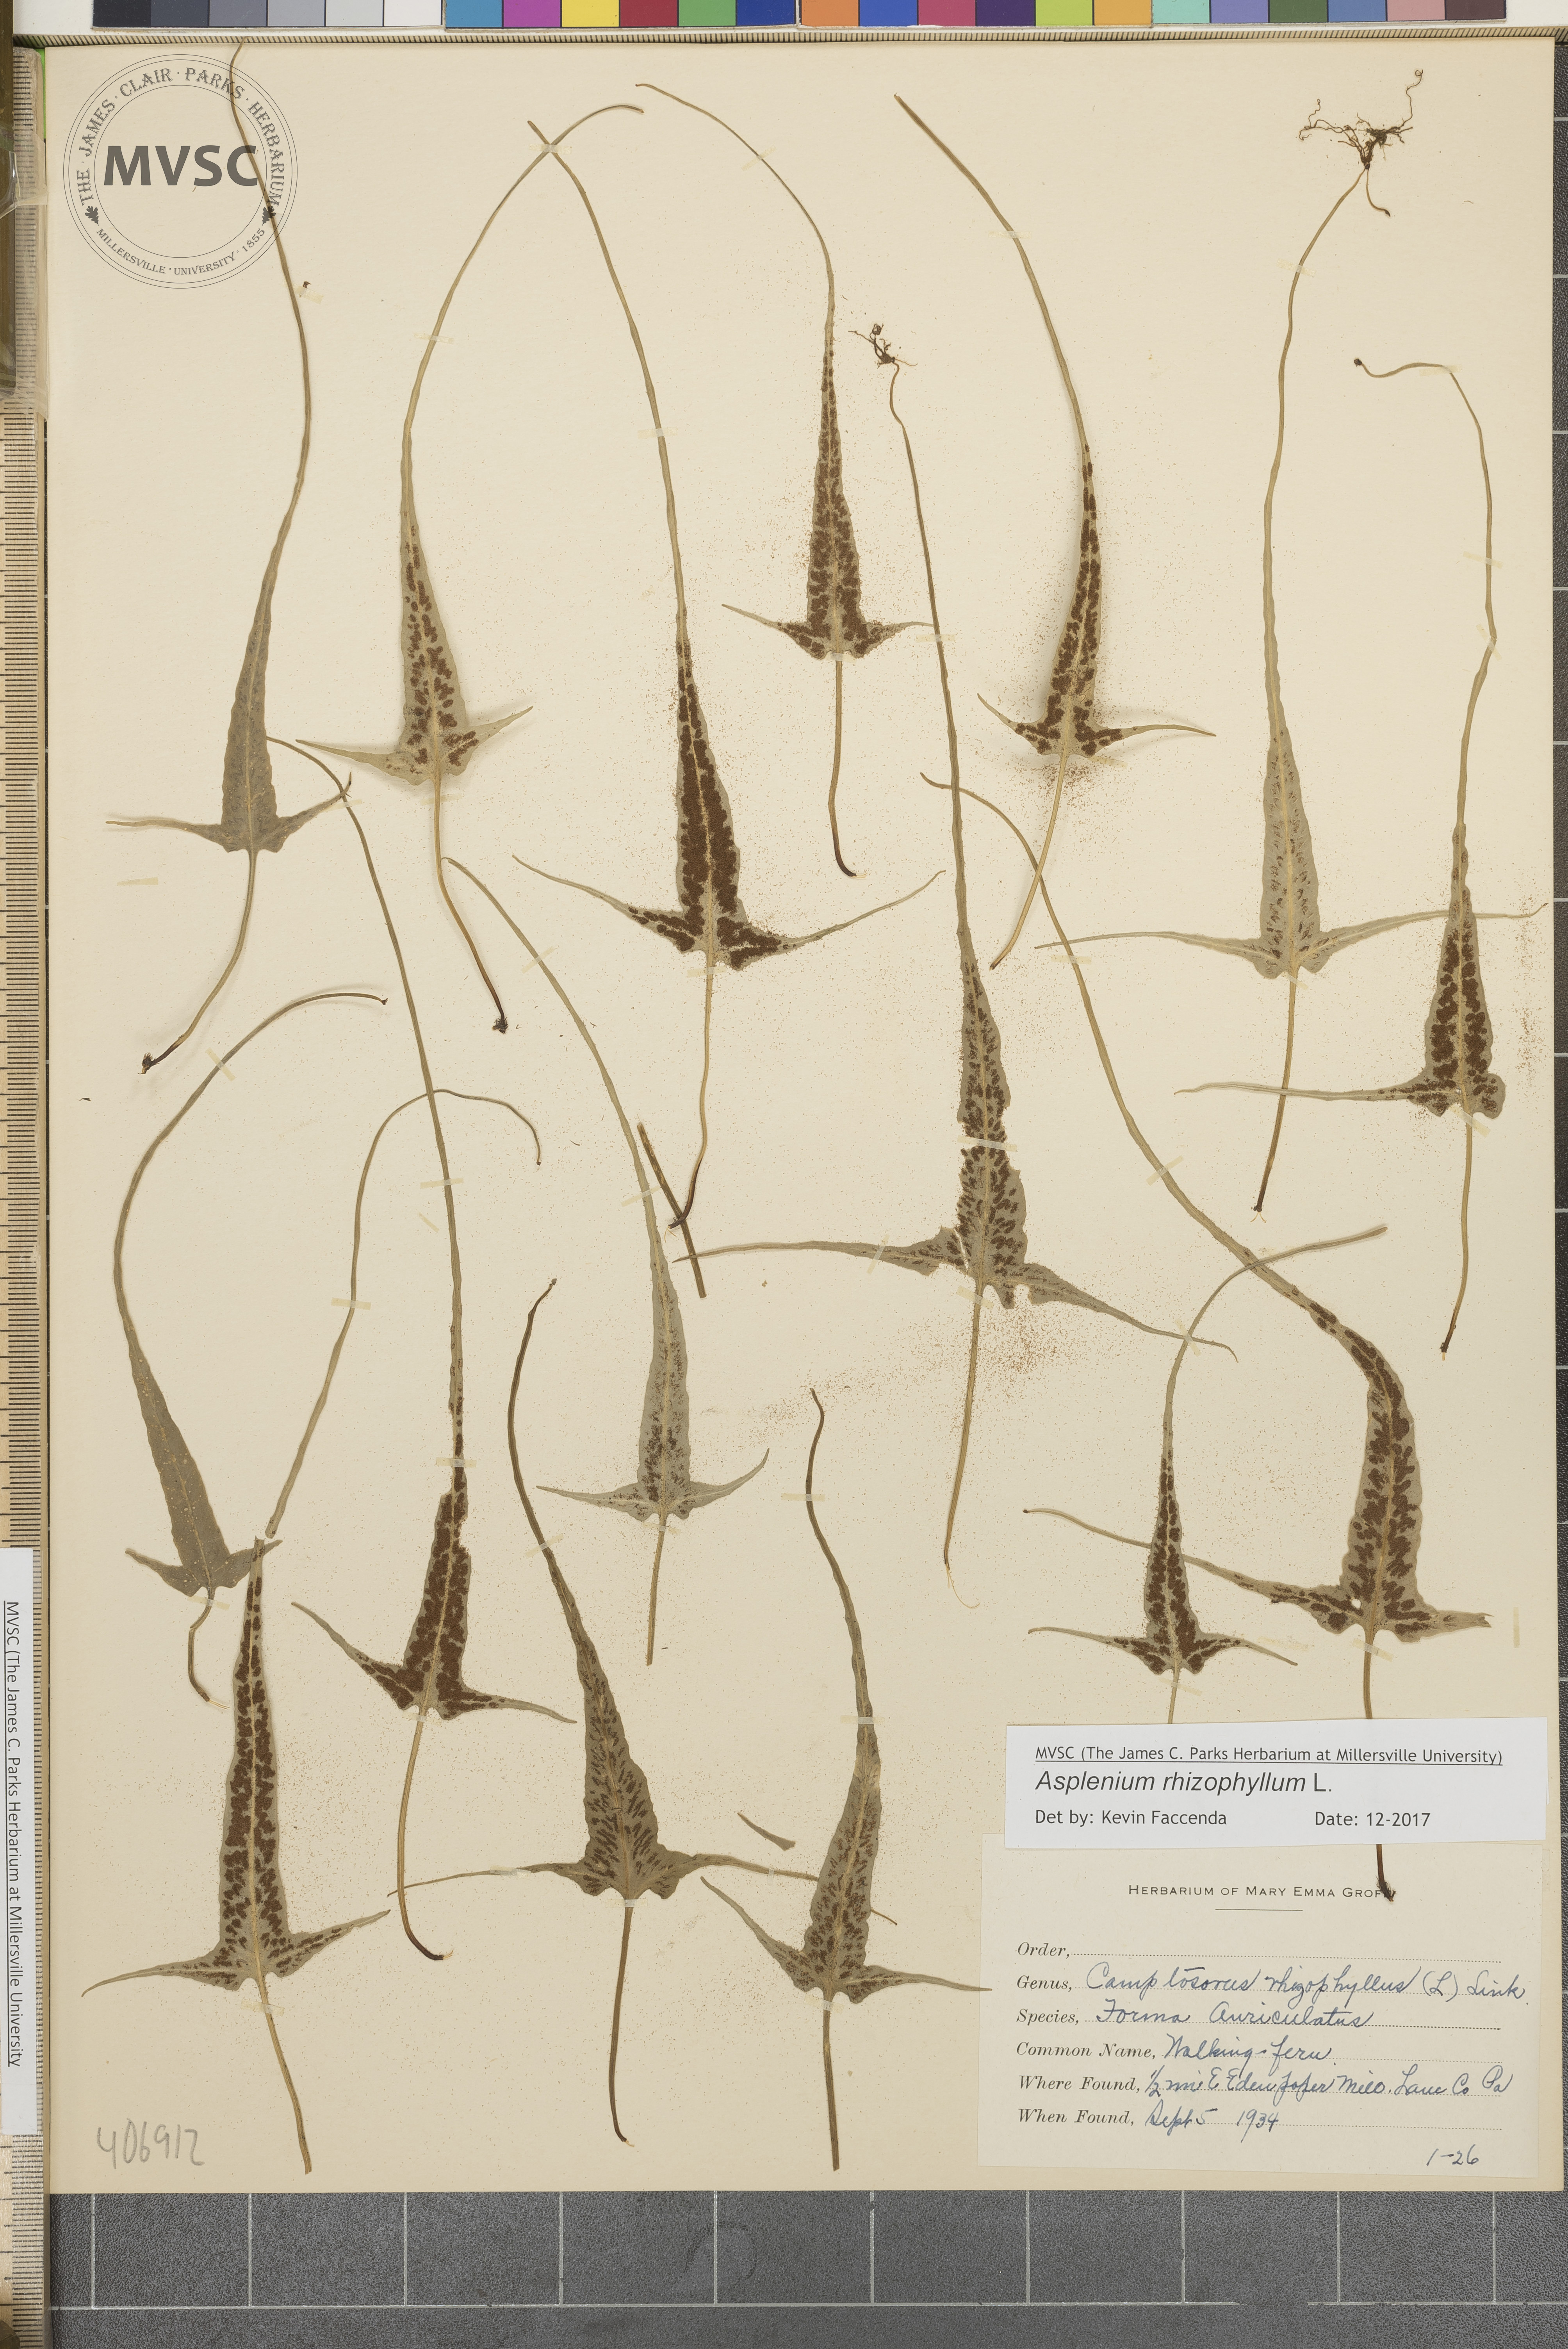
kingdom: Plantae
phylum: Tracheophyta
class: Polypodiopsida
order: Polypodiales
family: Aspleniaceae
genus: Asplenium
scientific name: Asplenium rhizophyllum
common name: Walking fern
